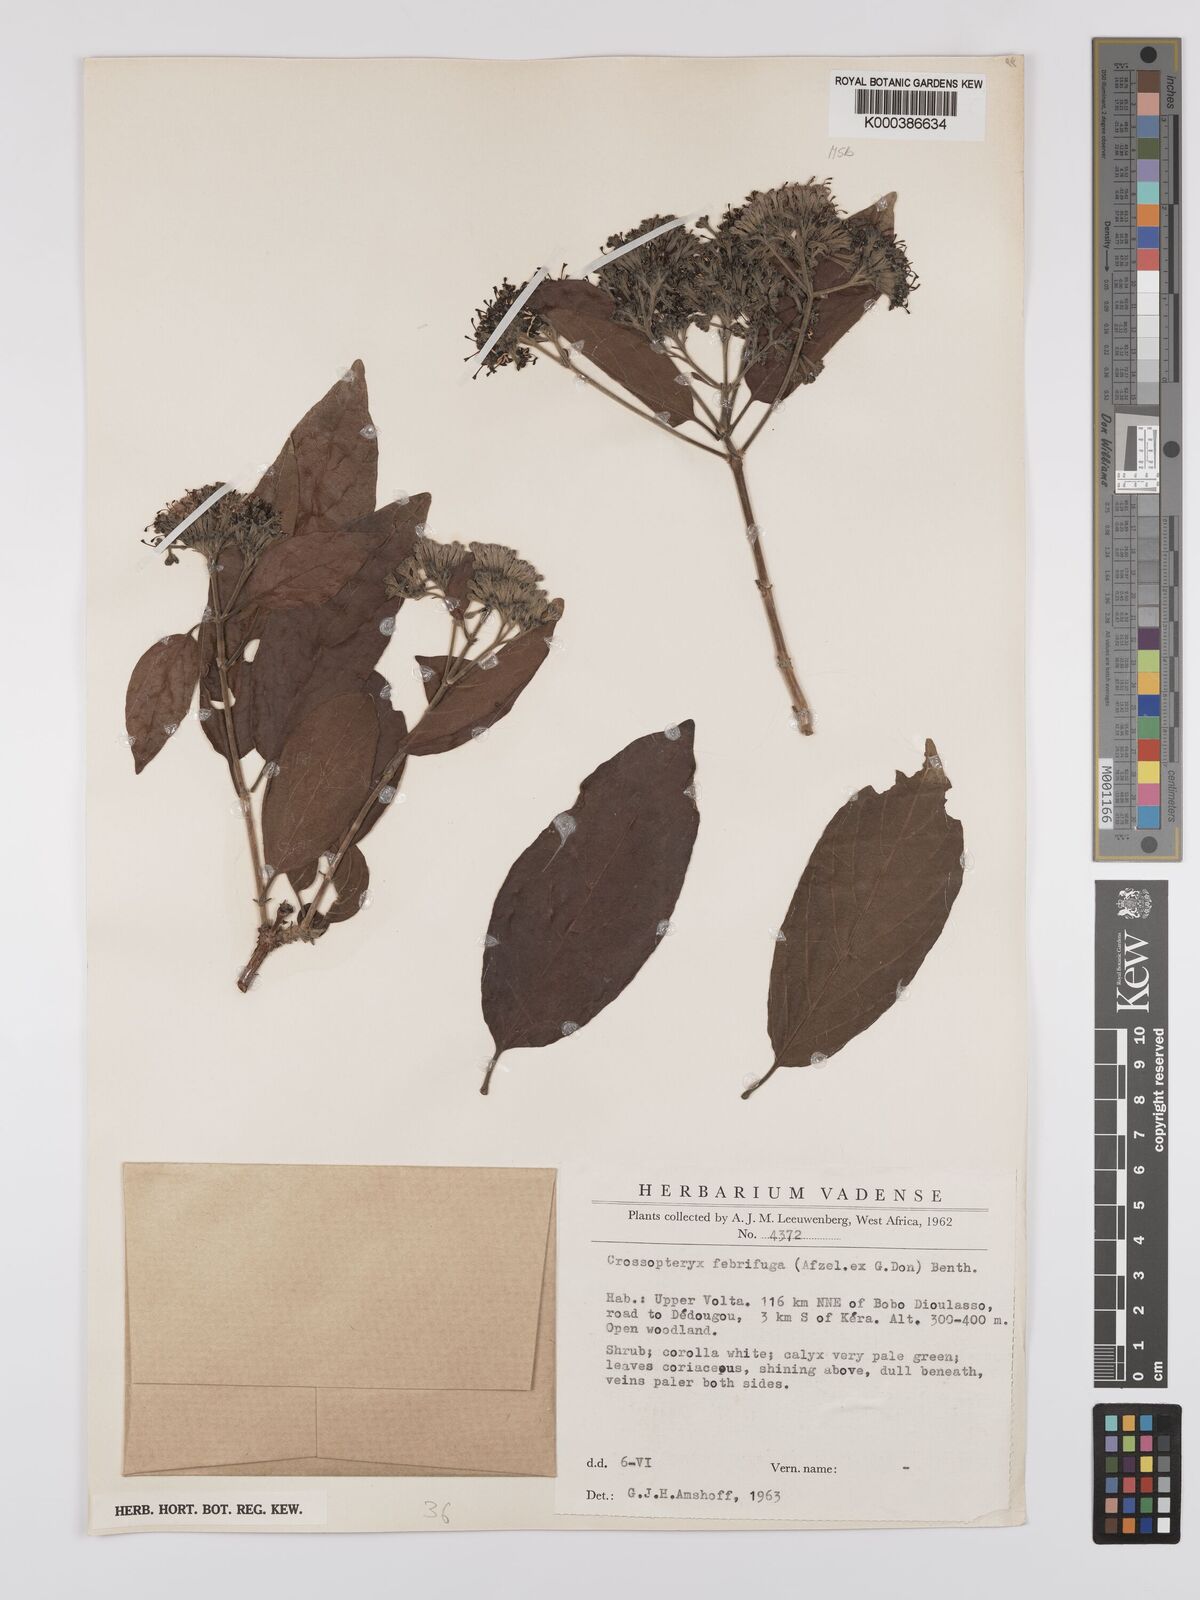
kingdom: Plantae
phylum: Tracheophyta
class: Magnoliopsida
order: Gentianales
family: Rubiaceae
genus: Crossopteryx
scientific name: Crossopteryx febrifuga
